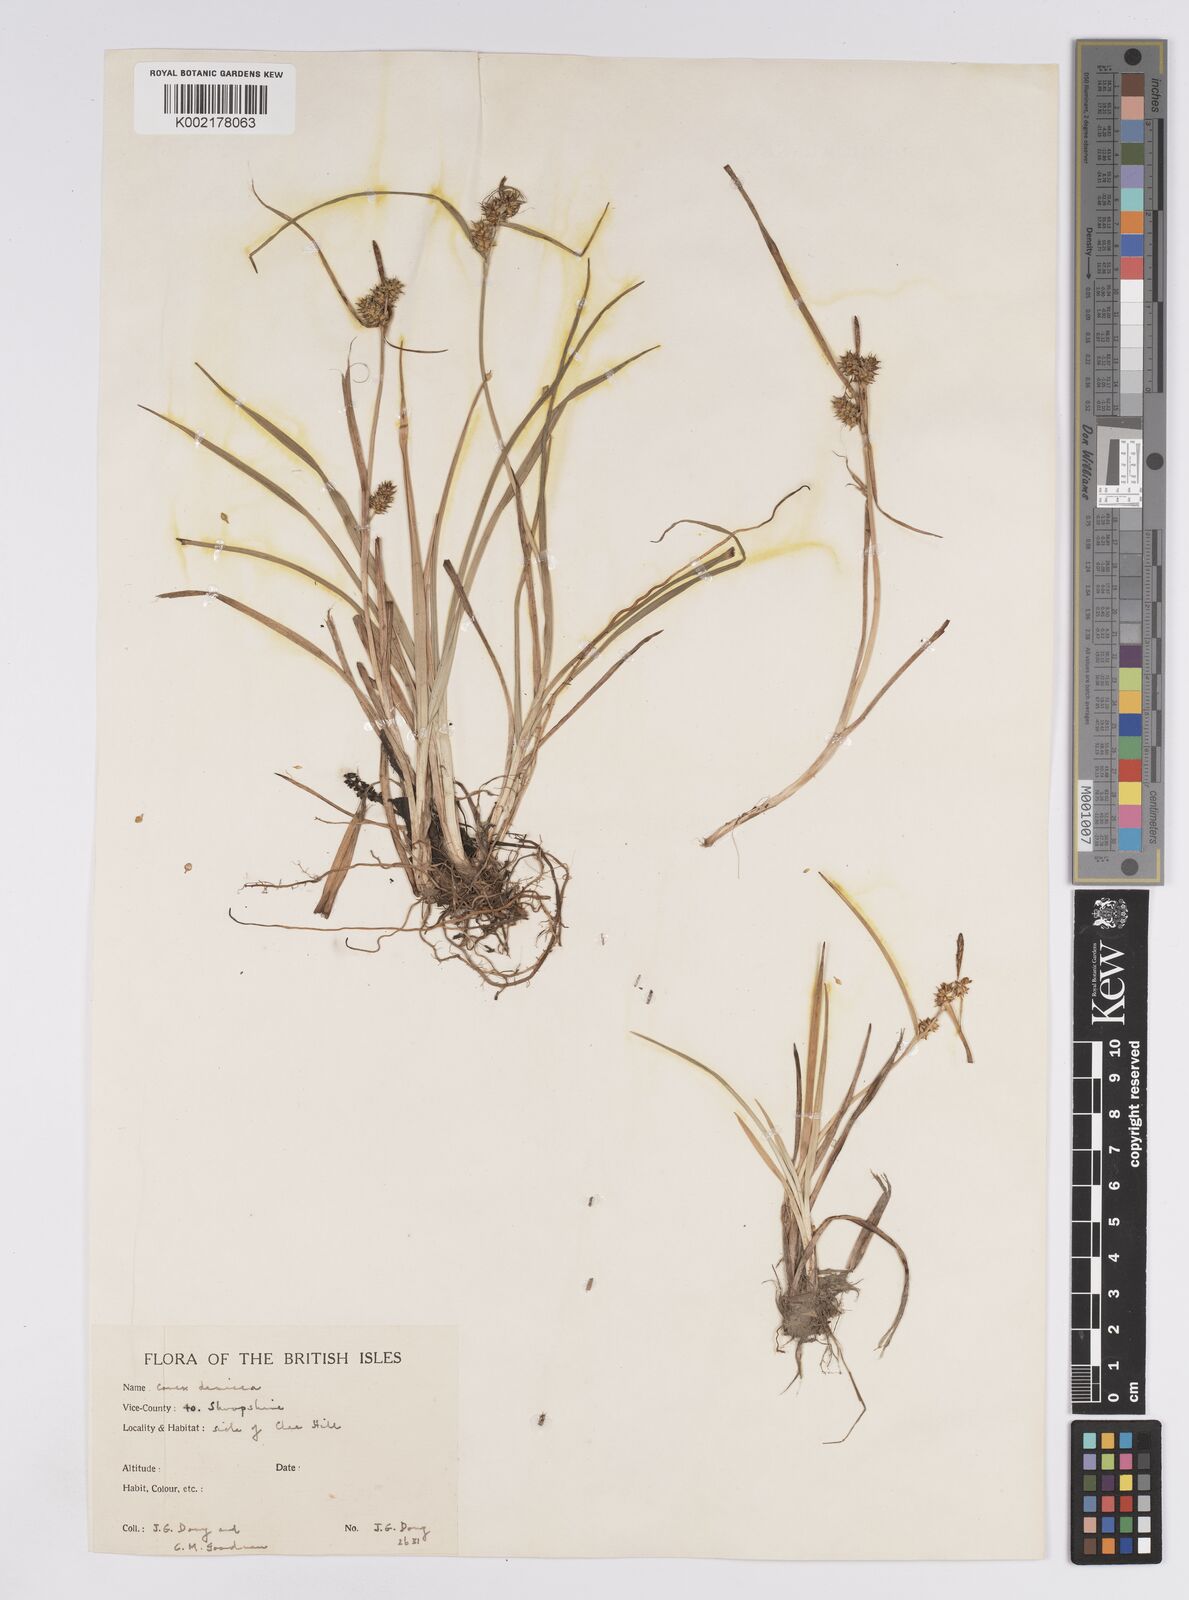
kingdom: Plantae
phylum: Tracheophyta
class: Liliopsida
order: Poales
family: Cyperaceae
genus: Carex
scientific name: Carex demissa
